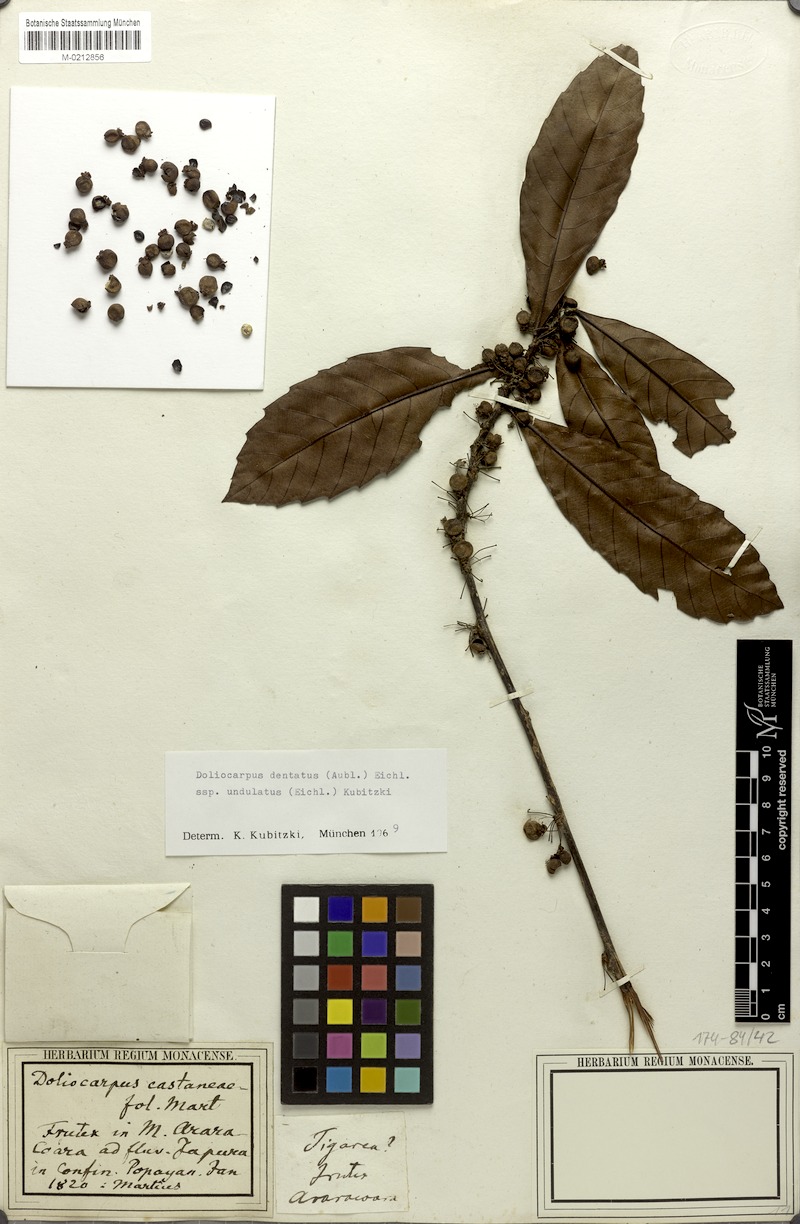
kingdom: Plantae
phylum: Tracheophyta
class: Magnoliopsida
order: Dilleniales
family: Dilleniaceae
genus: Doliocarpus
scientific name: Doliocarpus dentatus
